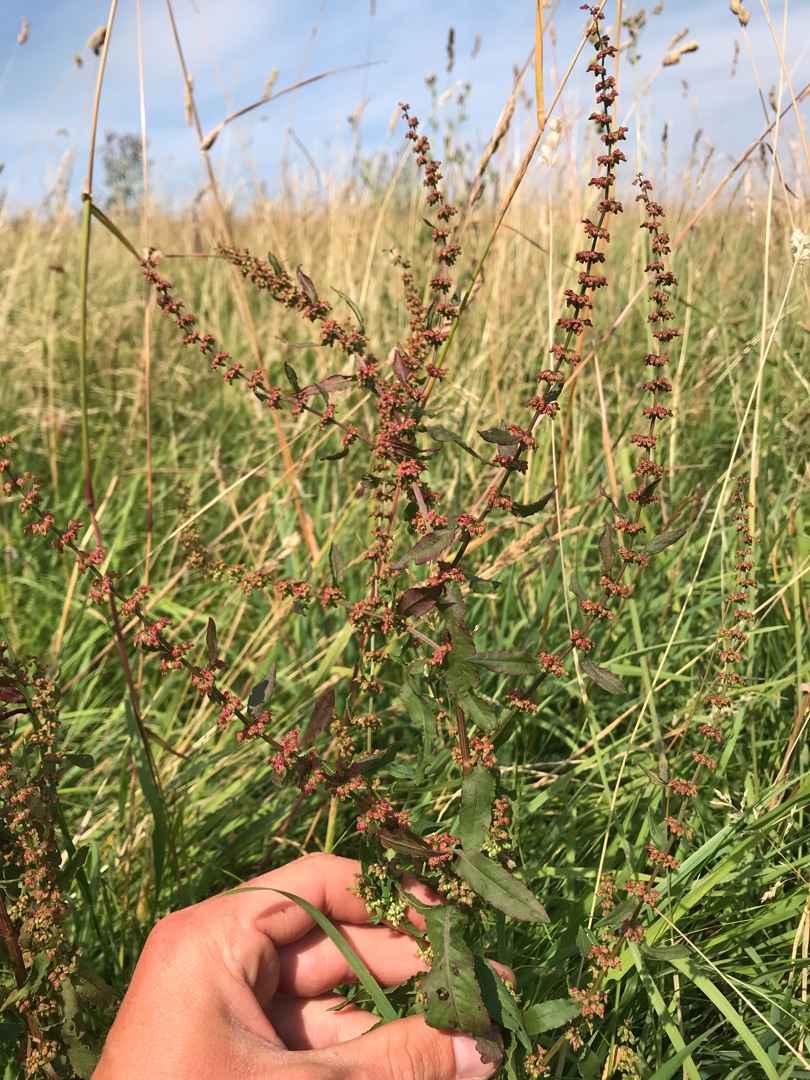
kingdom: Plantae
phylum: Tracheophyta
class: Magnoliopsida
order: Caryophyllales
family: Polygonaceae
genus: Rumex
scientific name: Rumex conglomeratus
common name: Nøgle-skræppe
